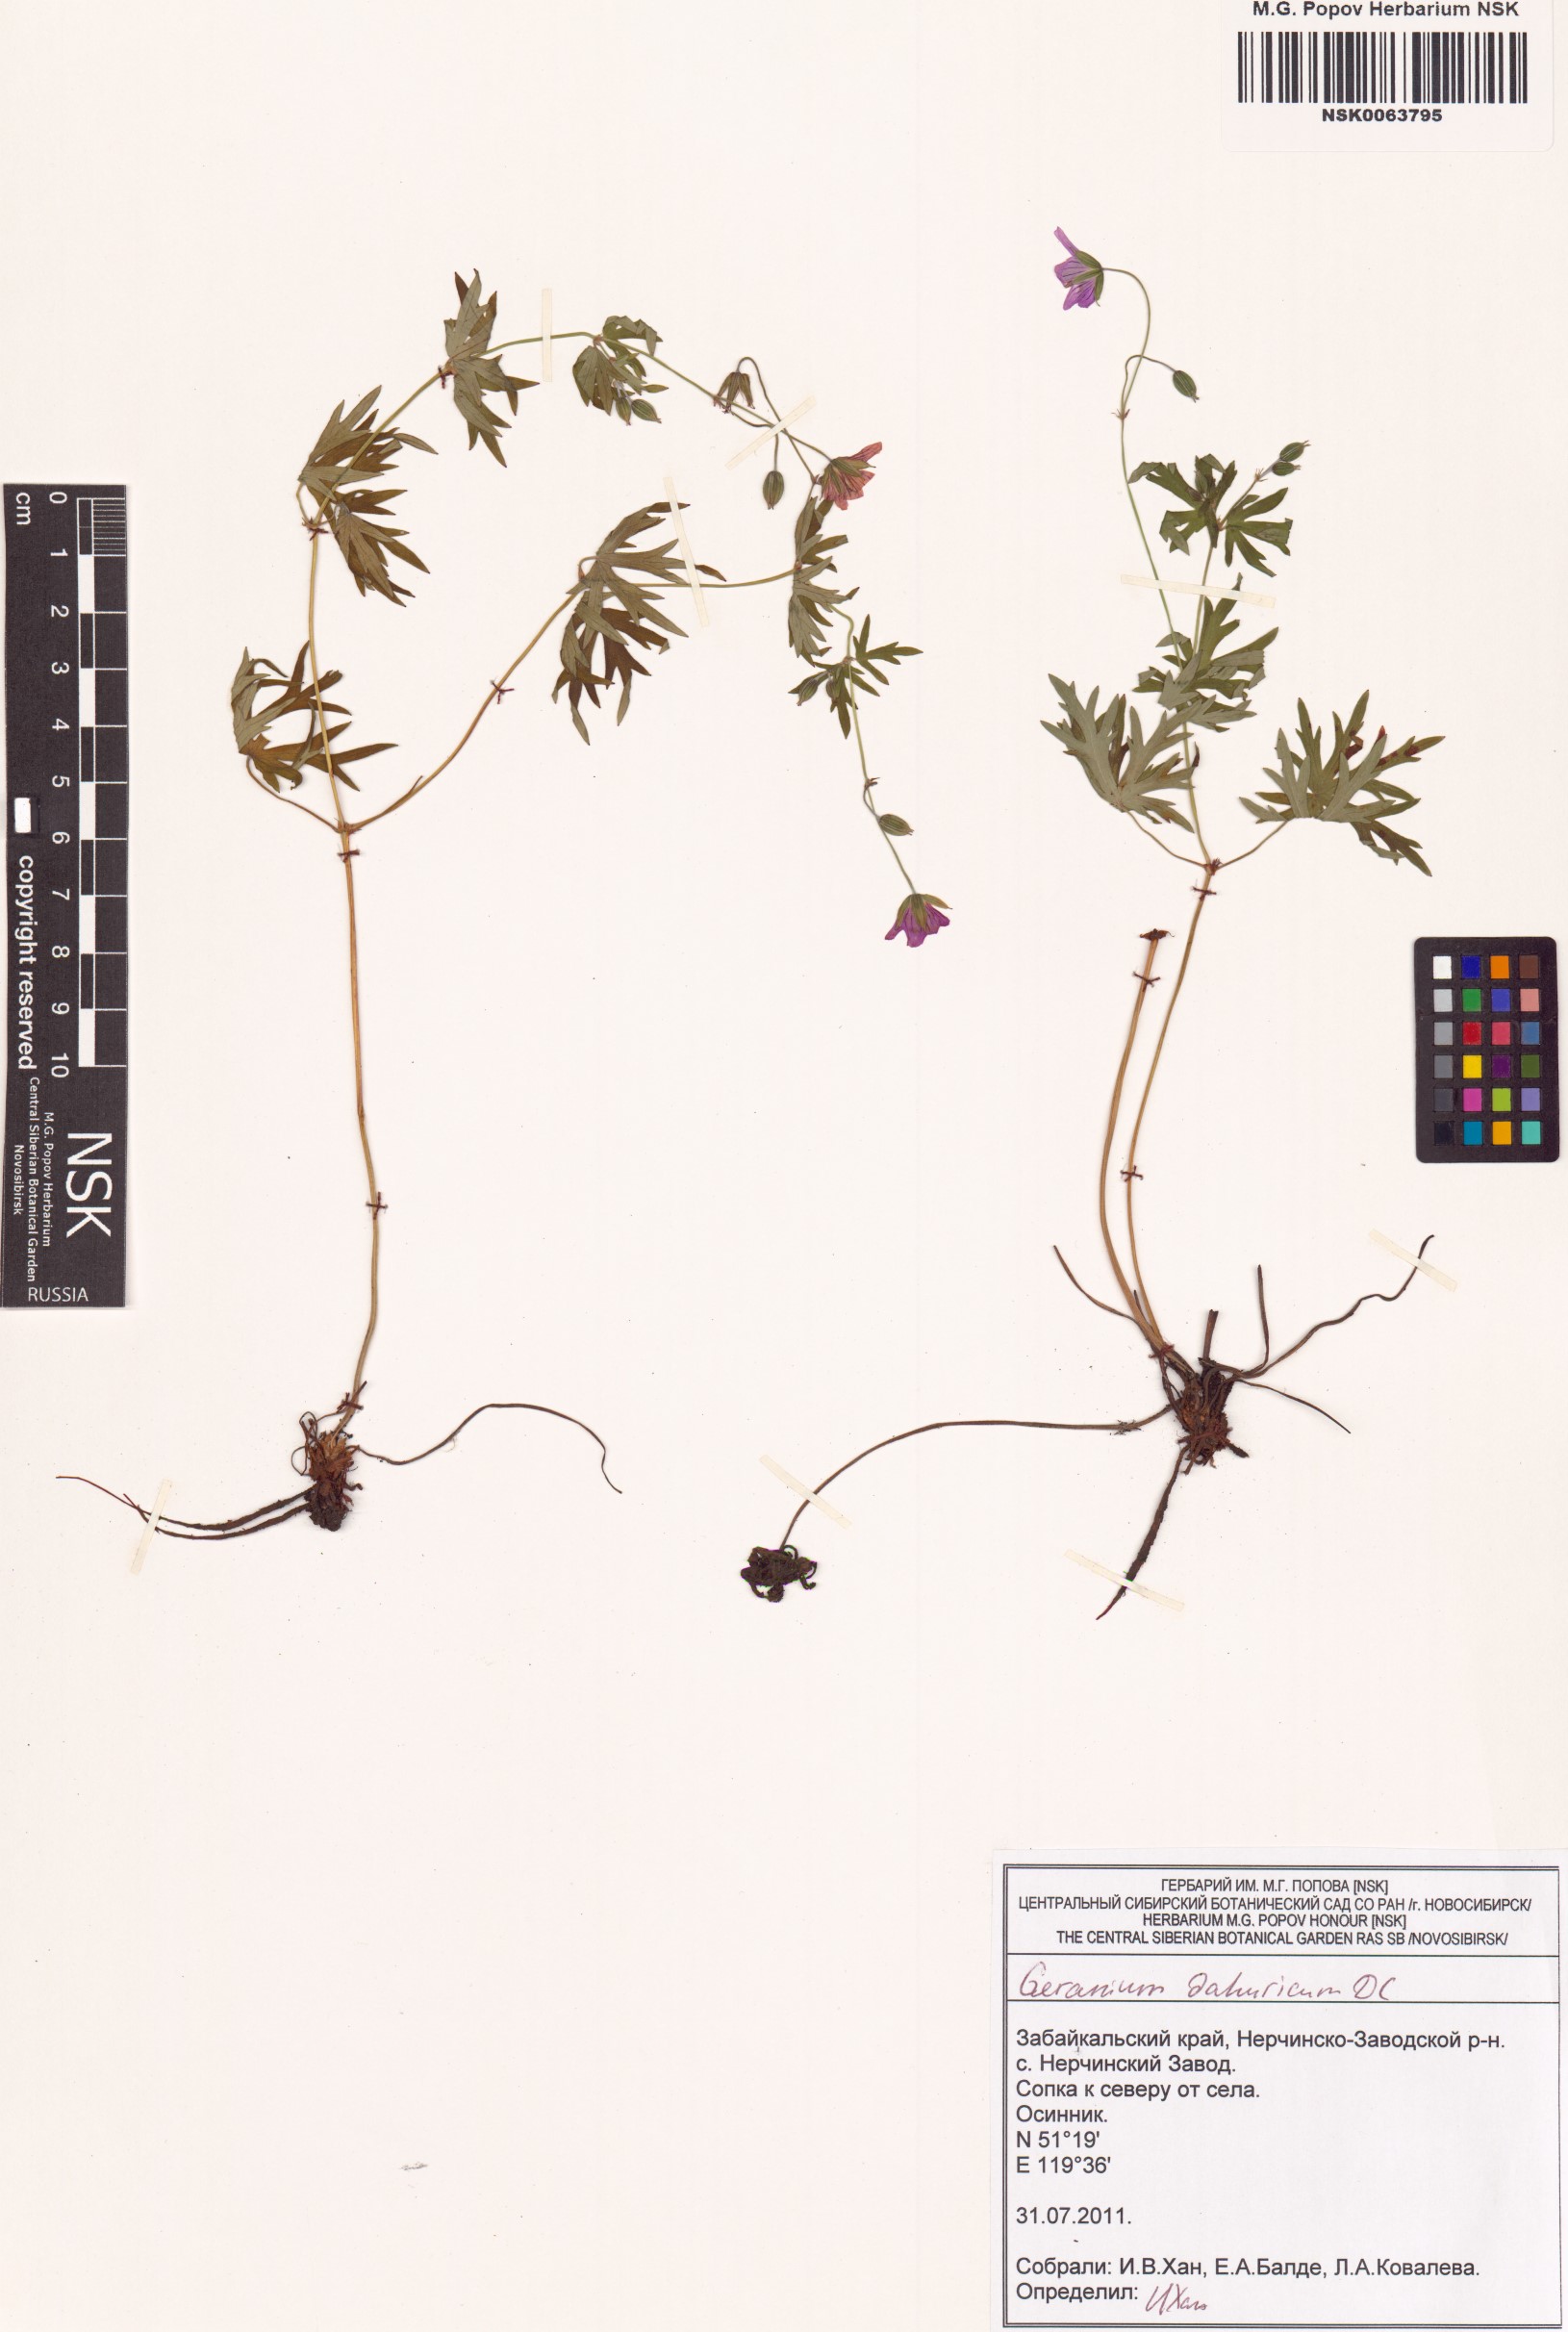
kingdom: Plantae
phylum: Tracheophyta
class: Magnoliopsida
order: Geraniales
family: Geraniaceae
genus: Geranium
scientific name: Geranium dahuricum
